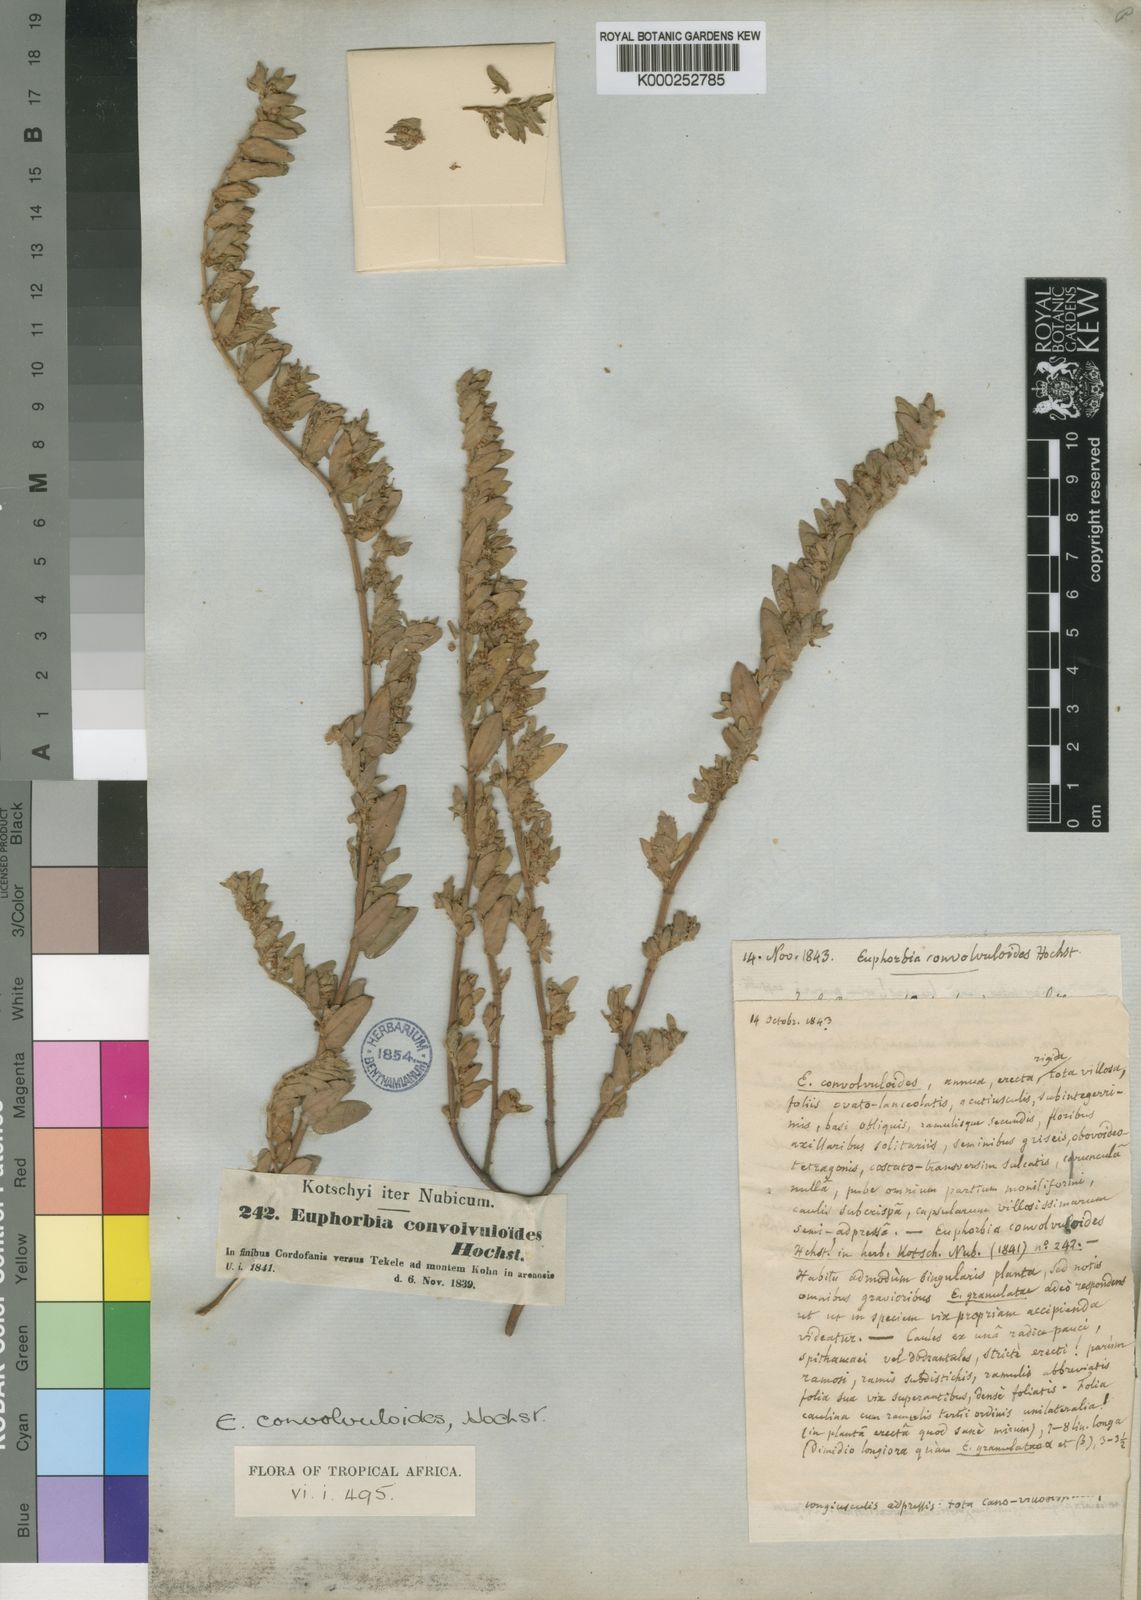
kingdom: Plantae
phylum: Tracheophyta
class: Magnoliopsida
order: Malpighiales
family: Euphorbiaceae
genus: Euphorbia
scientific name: Euphorbia convolvuloides
